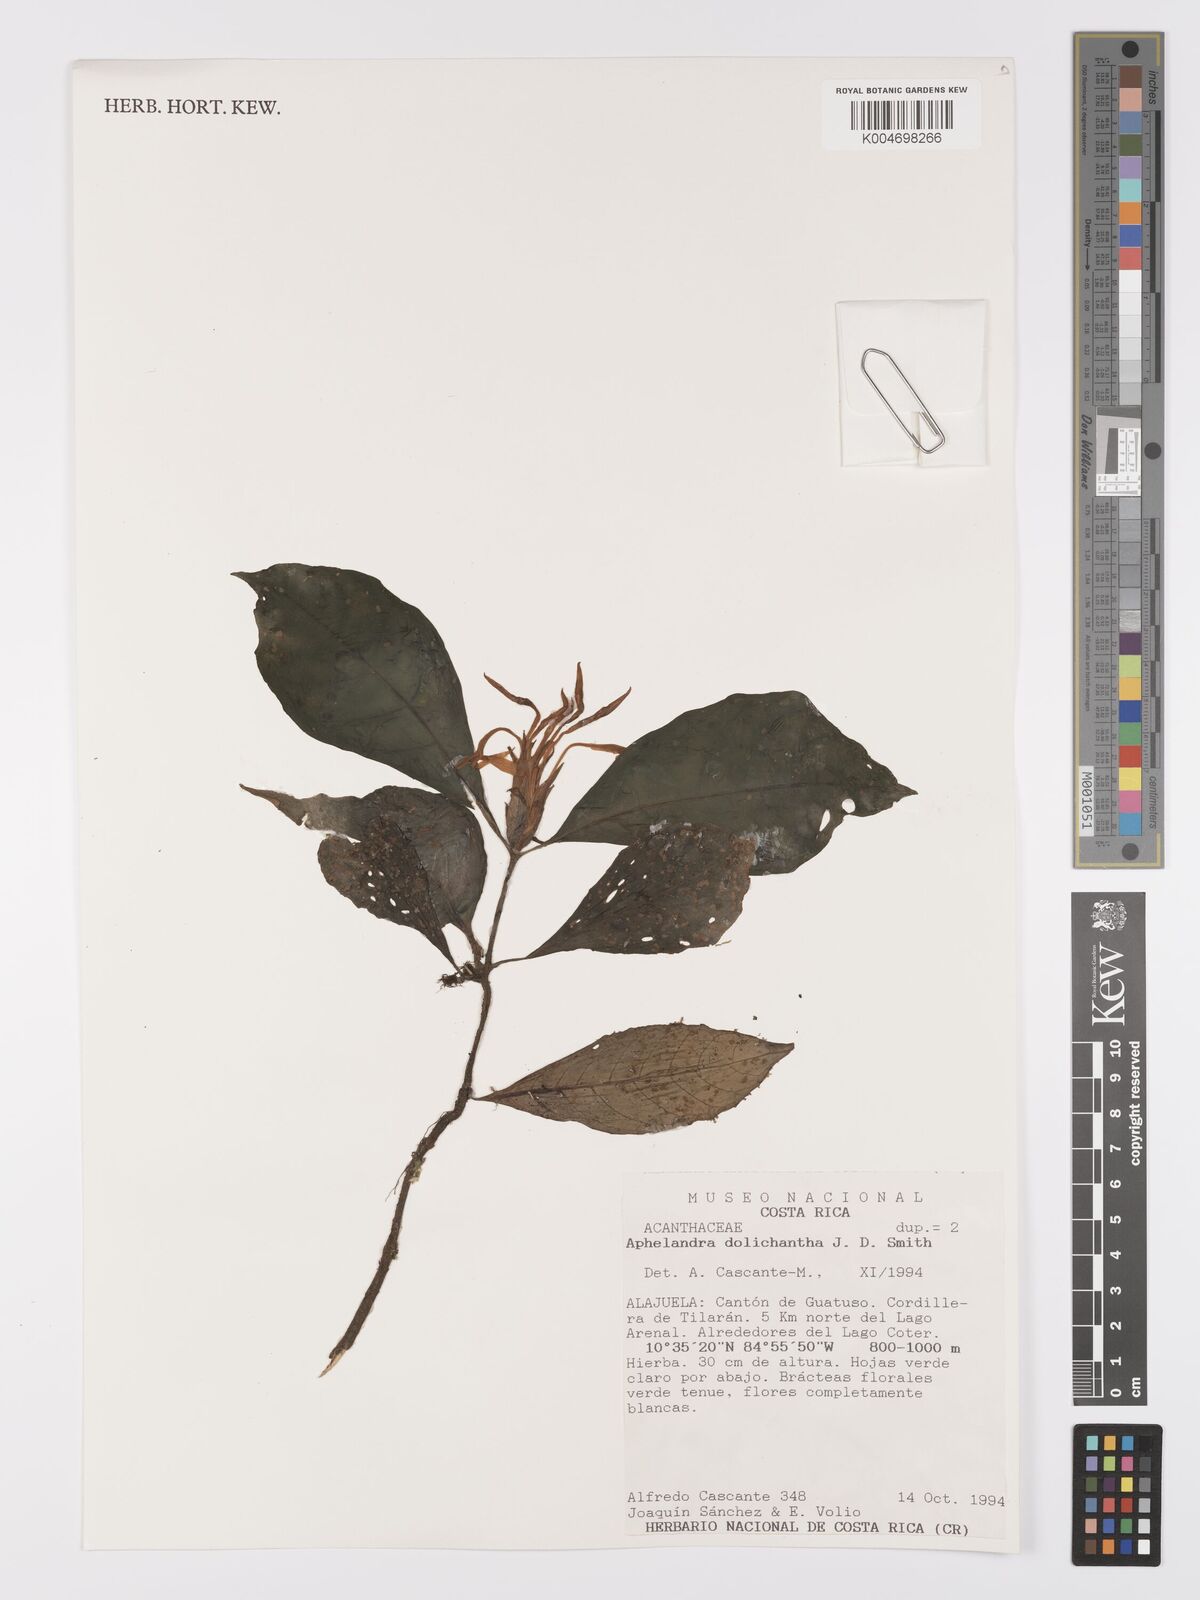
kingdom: Plantae
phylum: Tracheophyta
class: Magnoliopsida
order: Lamiales
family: Acanthaceae
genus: Aphelandra
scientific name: Aphelandra dolichantha
